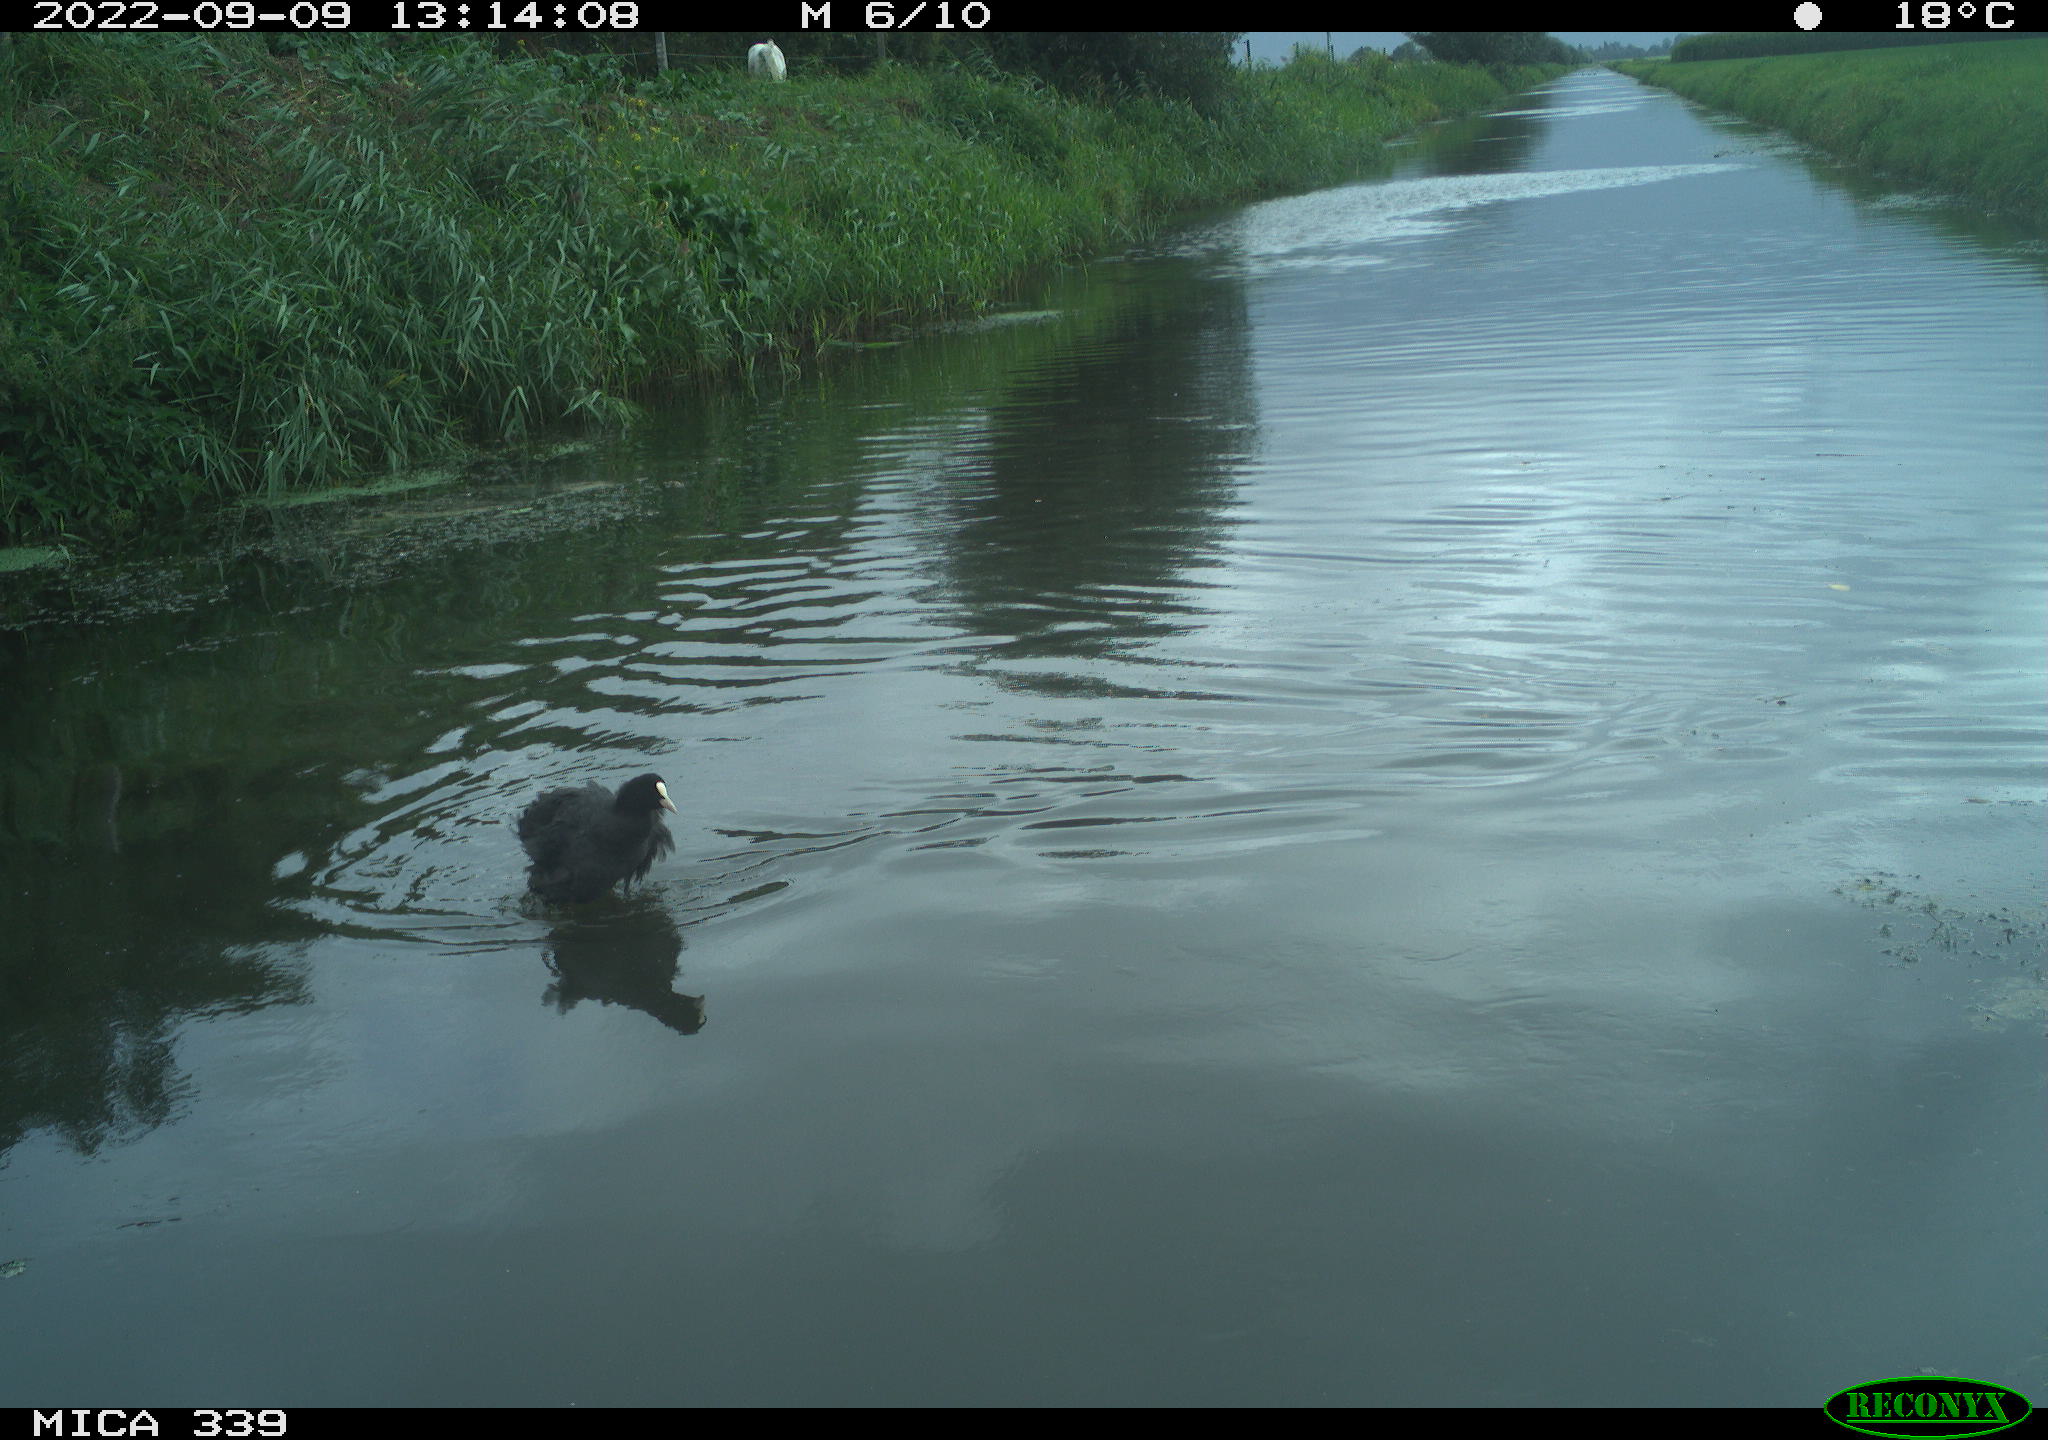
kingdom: Animalia
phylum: Chordata
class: Aves
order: Gruiformes
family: Rallidae
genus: Fulica
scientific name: Fulica atra
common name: Eurasian coot
